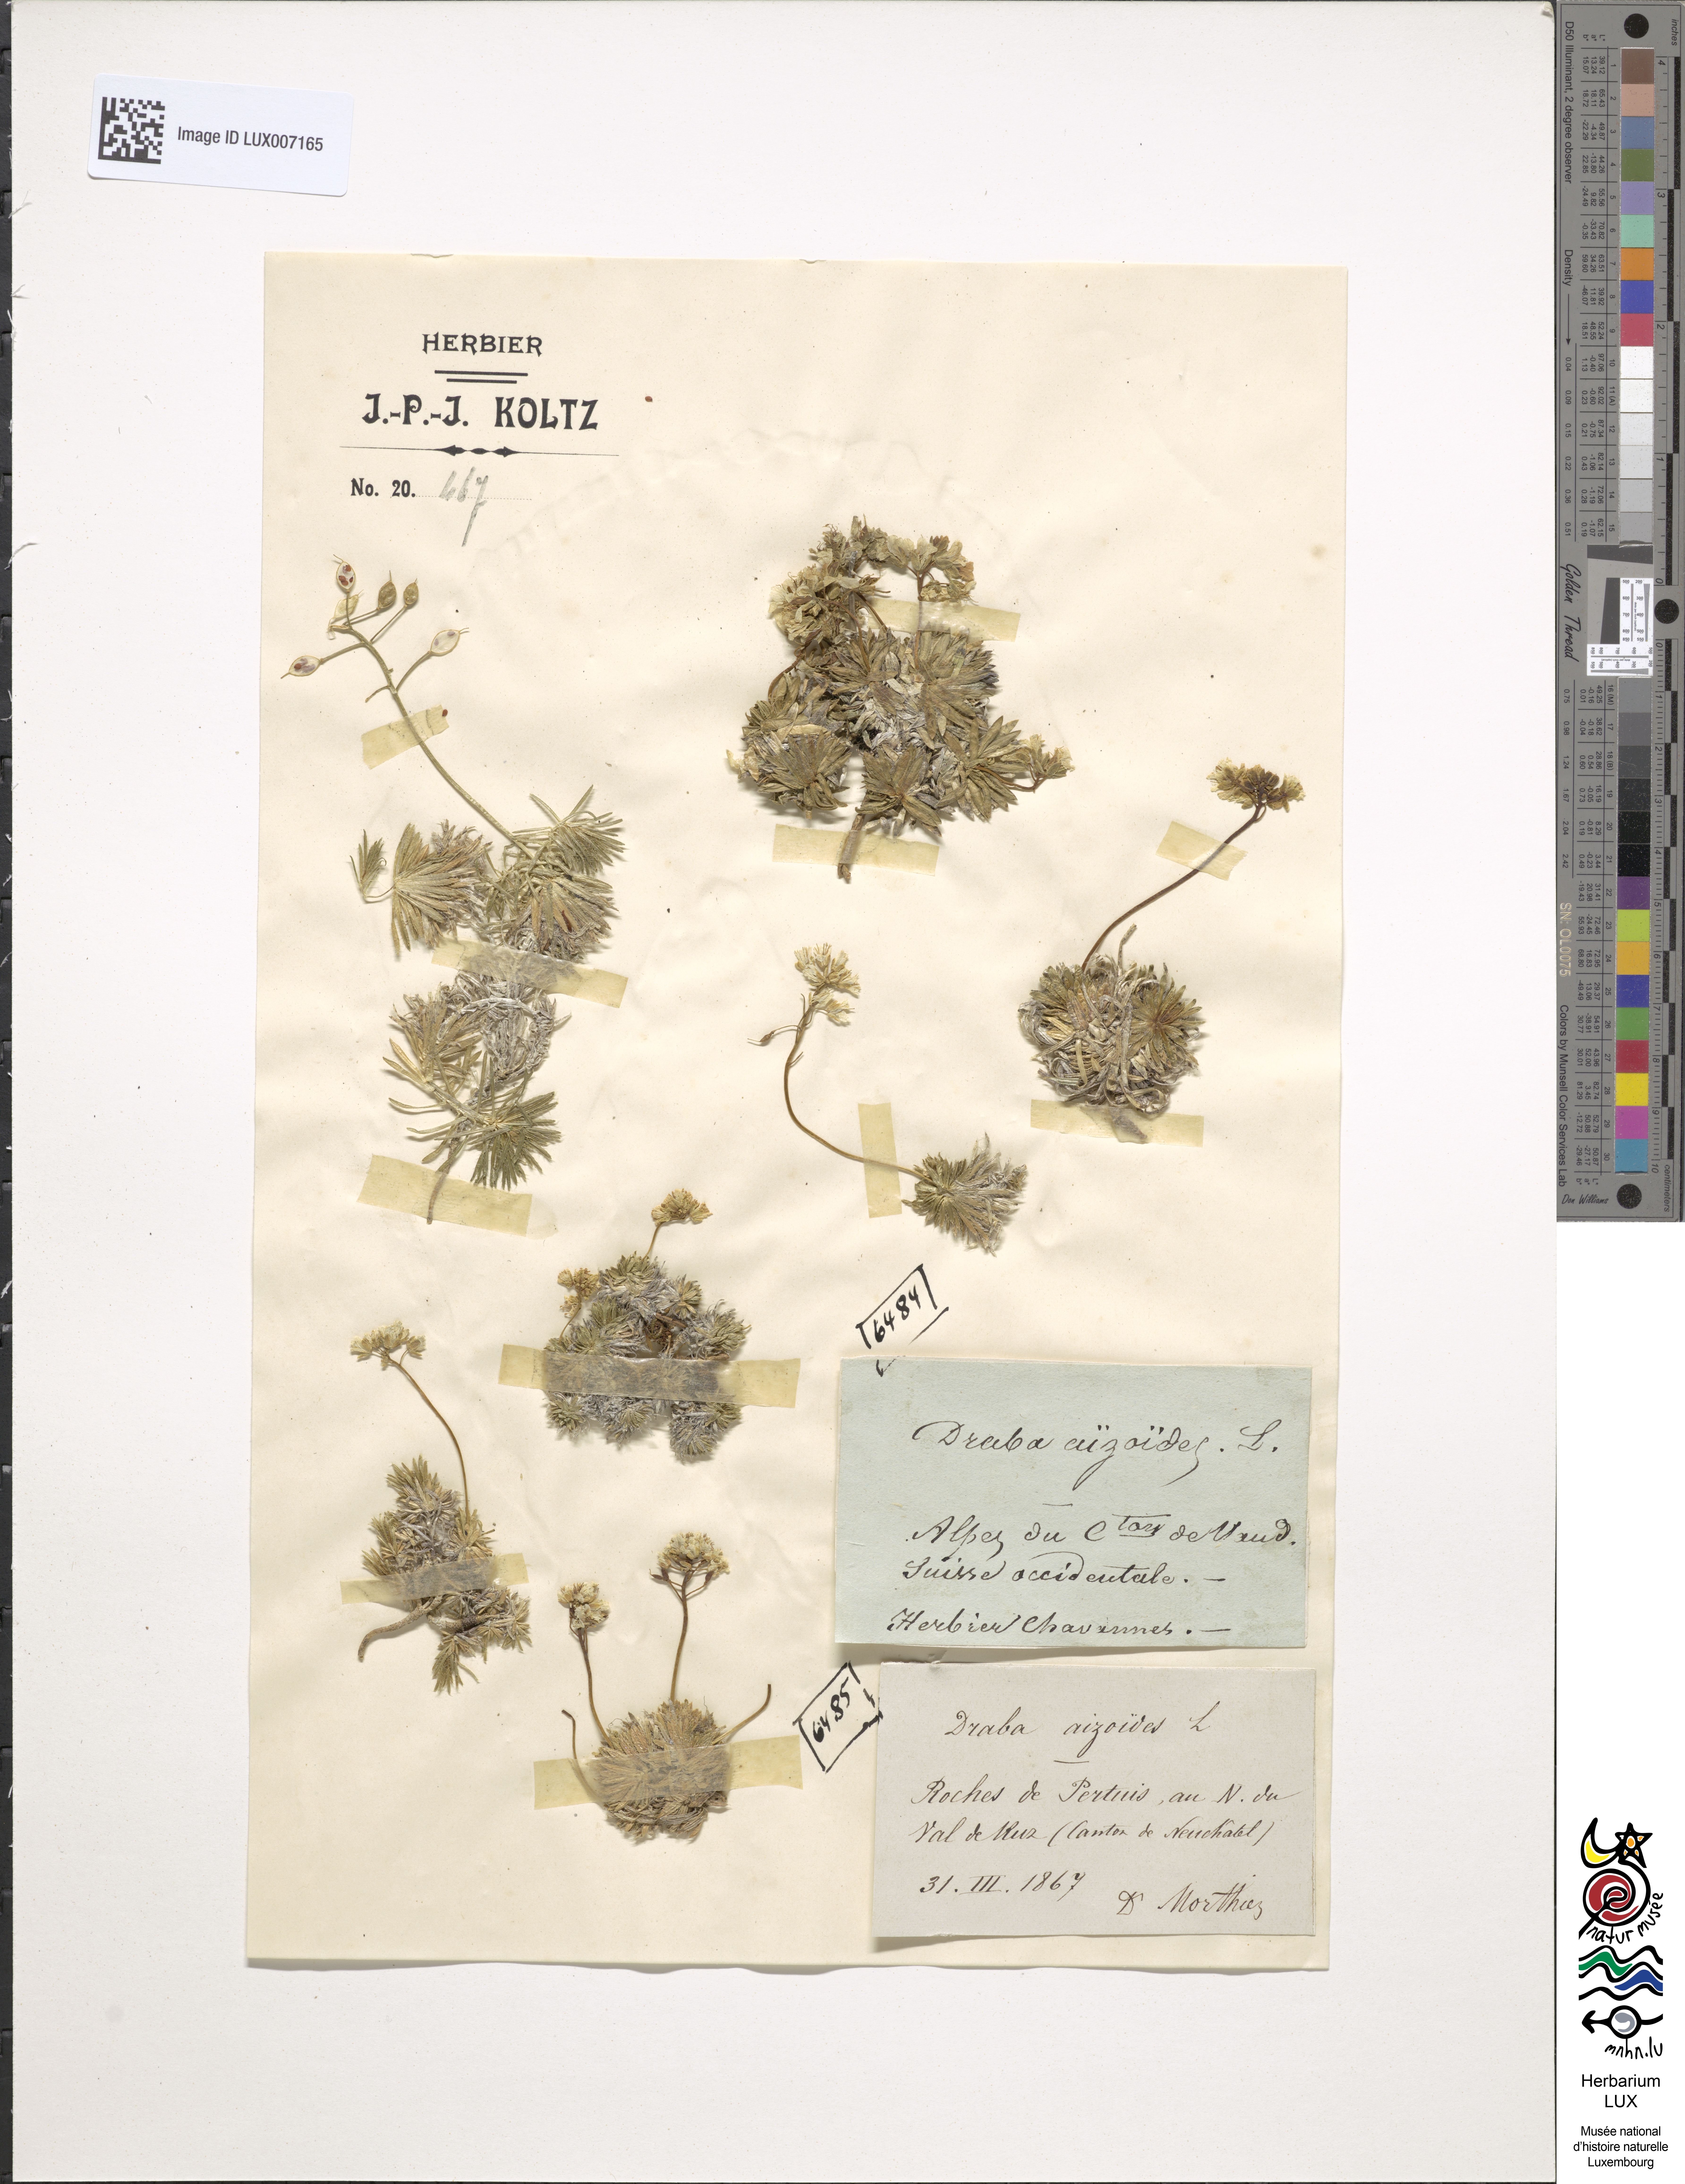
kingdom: Plantae
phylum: Tracheophyta
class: Magnoliopsida
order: Brassicales
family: Brassicaceae
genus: Draba
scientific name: Draba aizoides
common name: Yellow whitlowgrass
